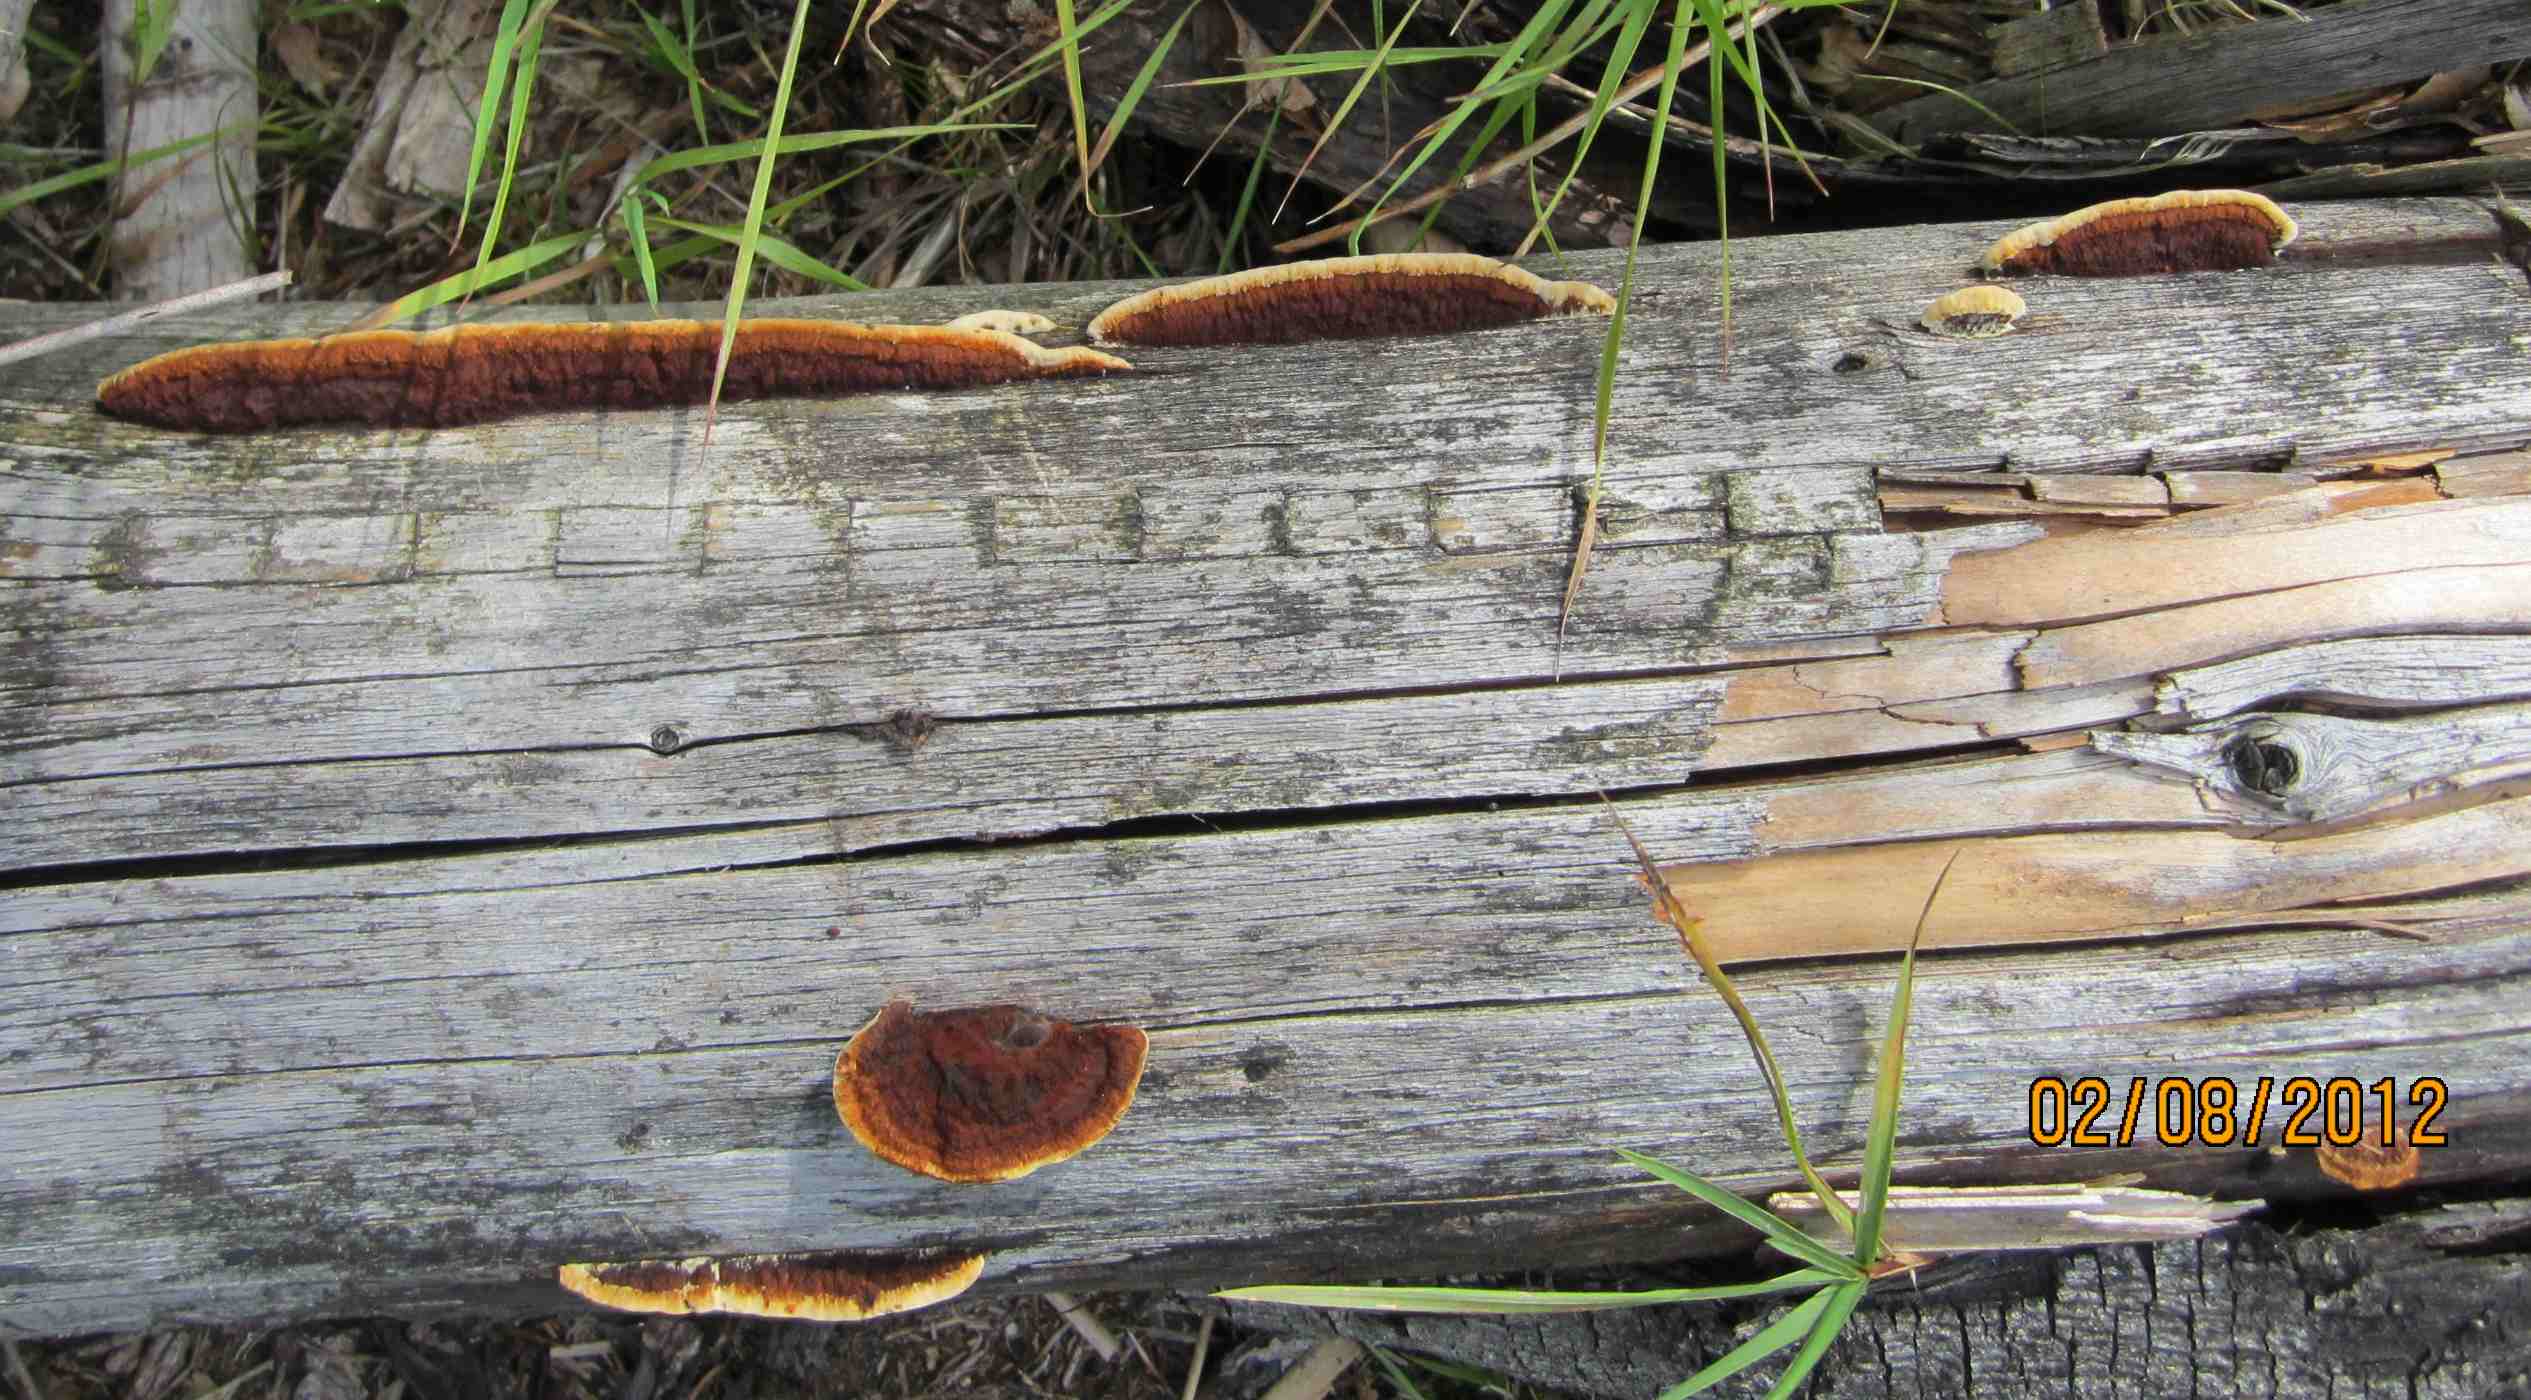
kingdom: Fungi
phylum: Basidiomycota
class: Agaricomycetes
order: Gloeophyllales
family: Gloeophyllaceae
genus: Gloeophyllum
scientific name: Gloeophyllum sepiarium
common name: fyrre-korkhat
